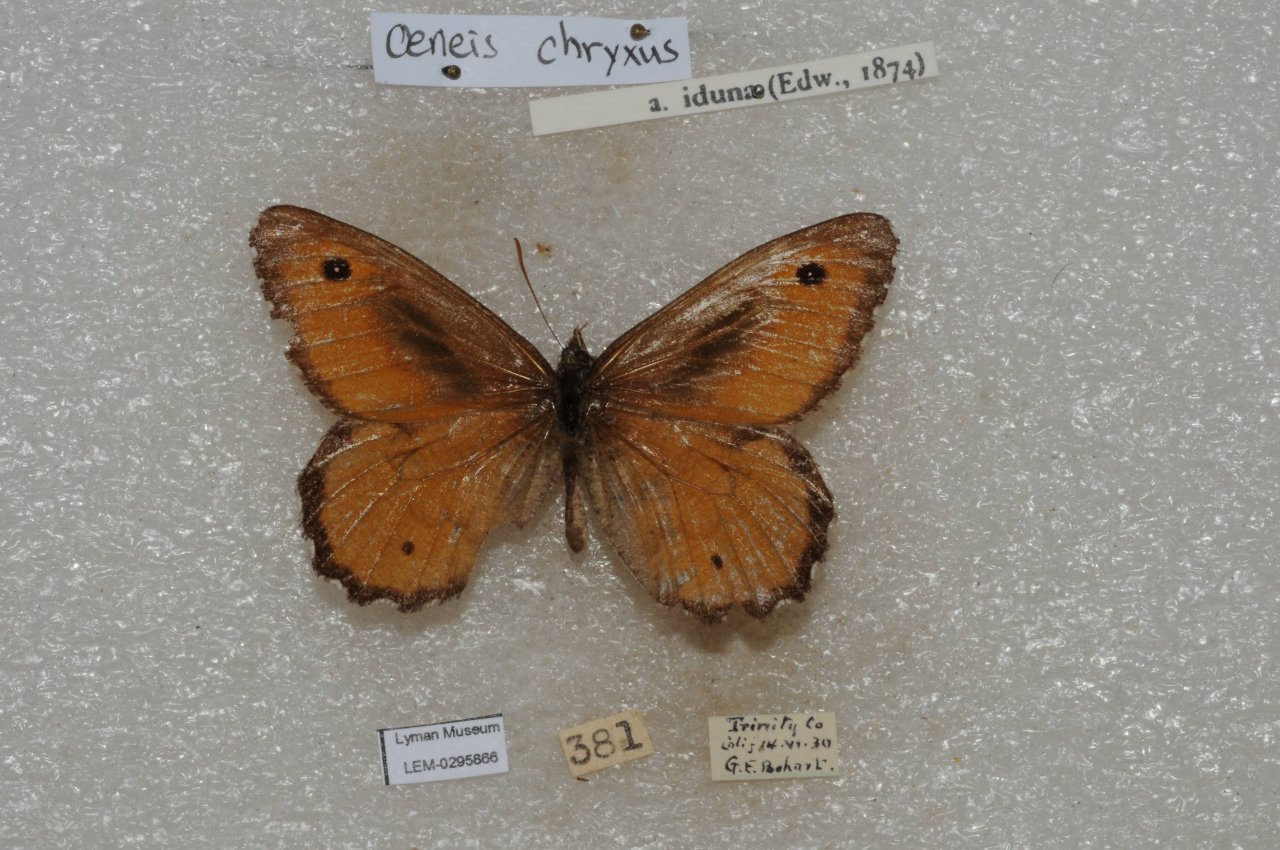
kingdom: Animalia
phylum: Arthropoda
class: Insecta
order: Lepidoptera
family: Nymphalidae
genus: Oeneis
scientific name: Oeneis chryxus
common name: Chryxus Arctic
